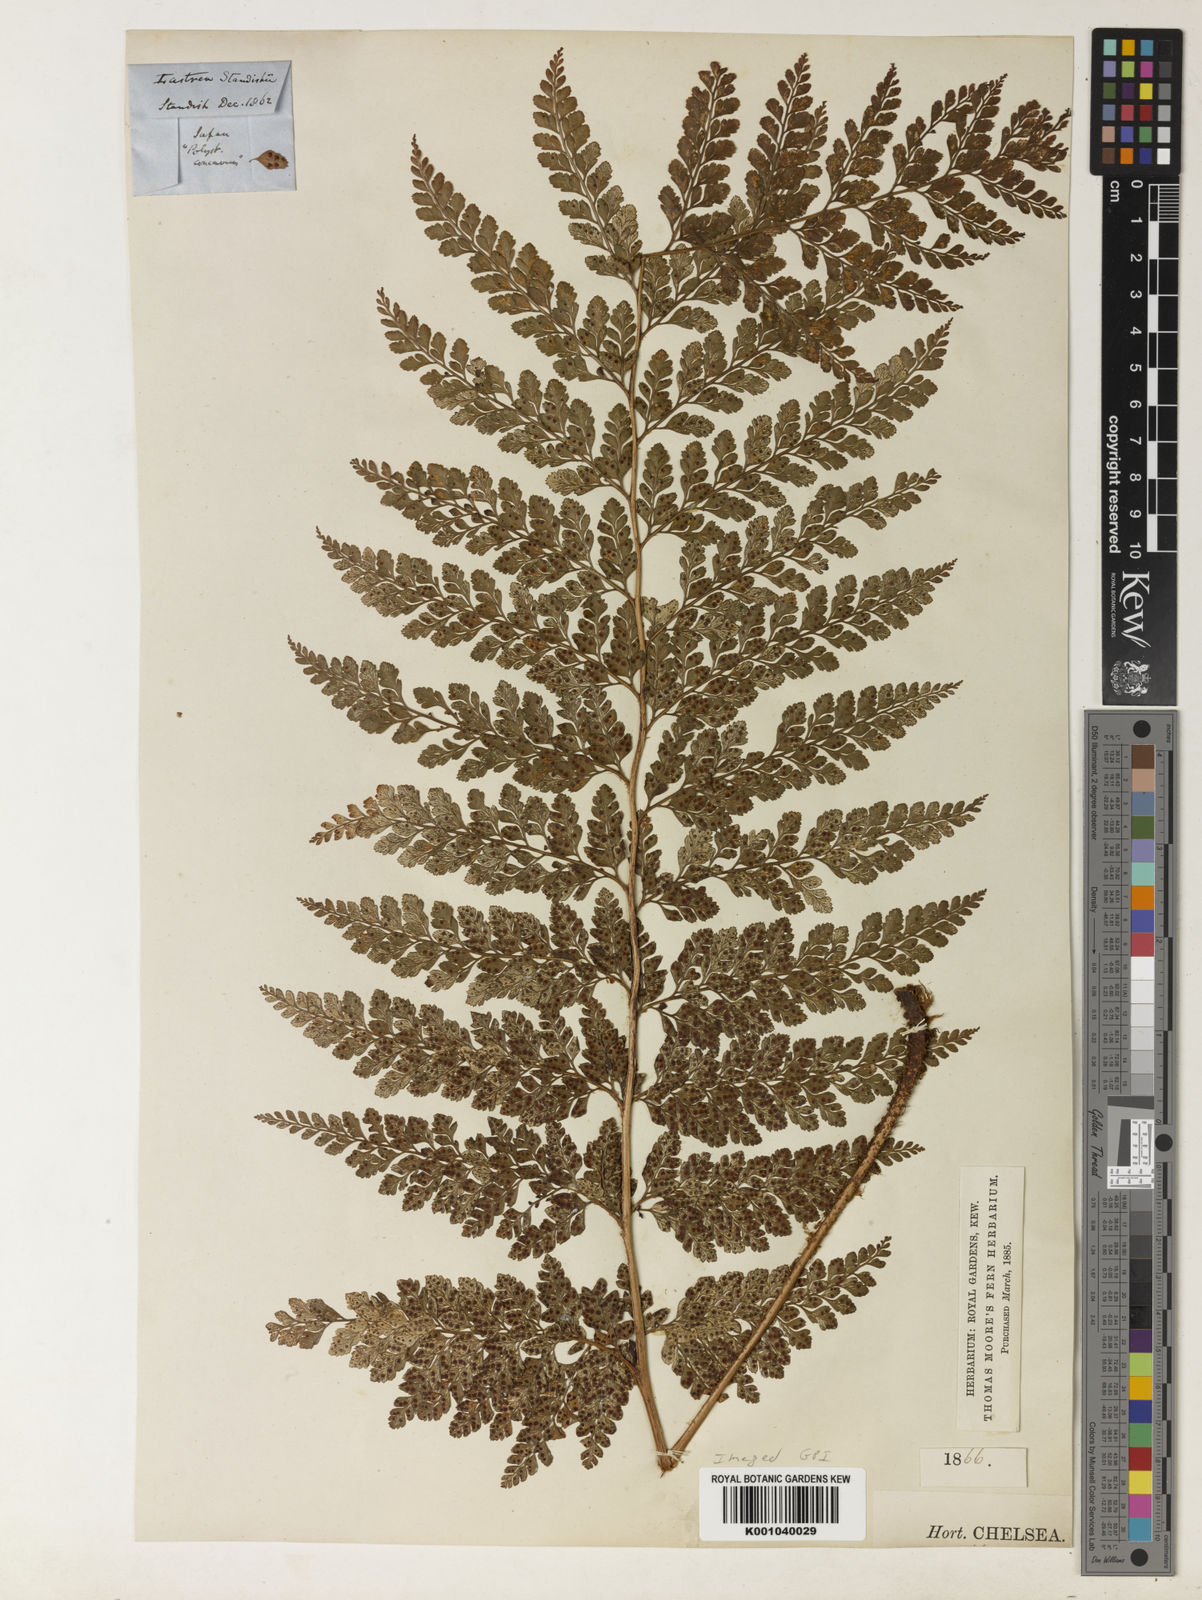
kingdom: Plantae
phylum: Tracheophyta
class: Polypodiopsida
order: Polypodiales
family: Dryopteridaceae
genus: Arachniodes
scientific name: Arachniodes standishii
